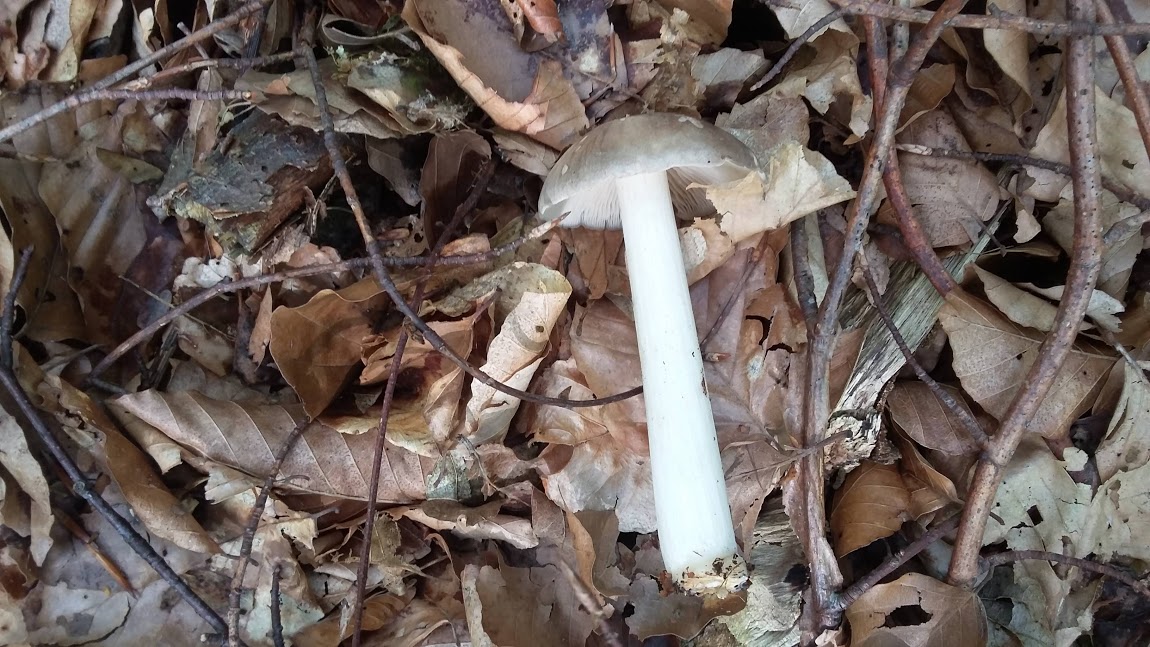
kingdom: Fungi
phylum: Basidiomycota
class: Agaricomycetes
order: Agaricales
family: Tricholomataceae
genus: Megacollybia
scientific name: Megacollybia platyphylla
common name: bredbladet væbnerhat
